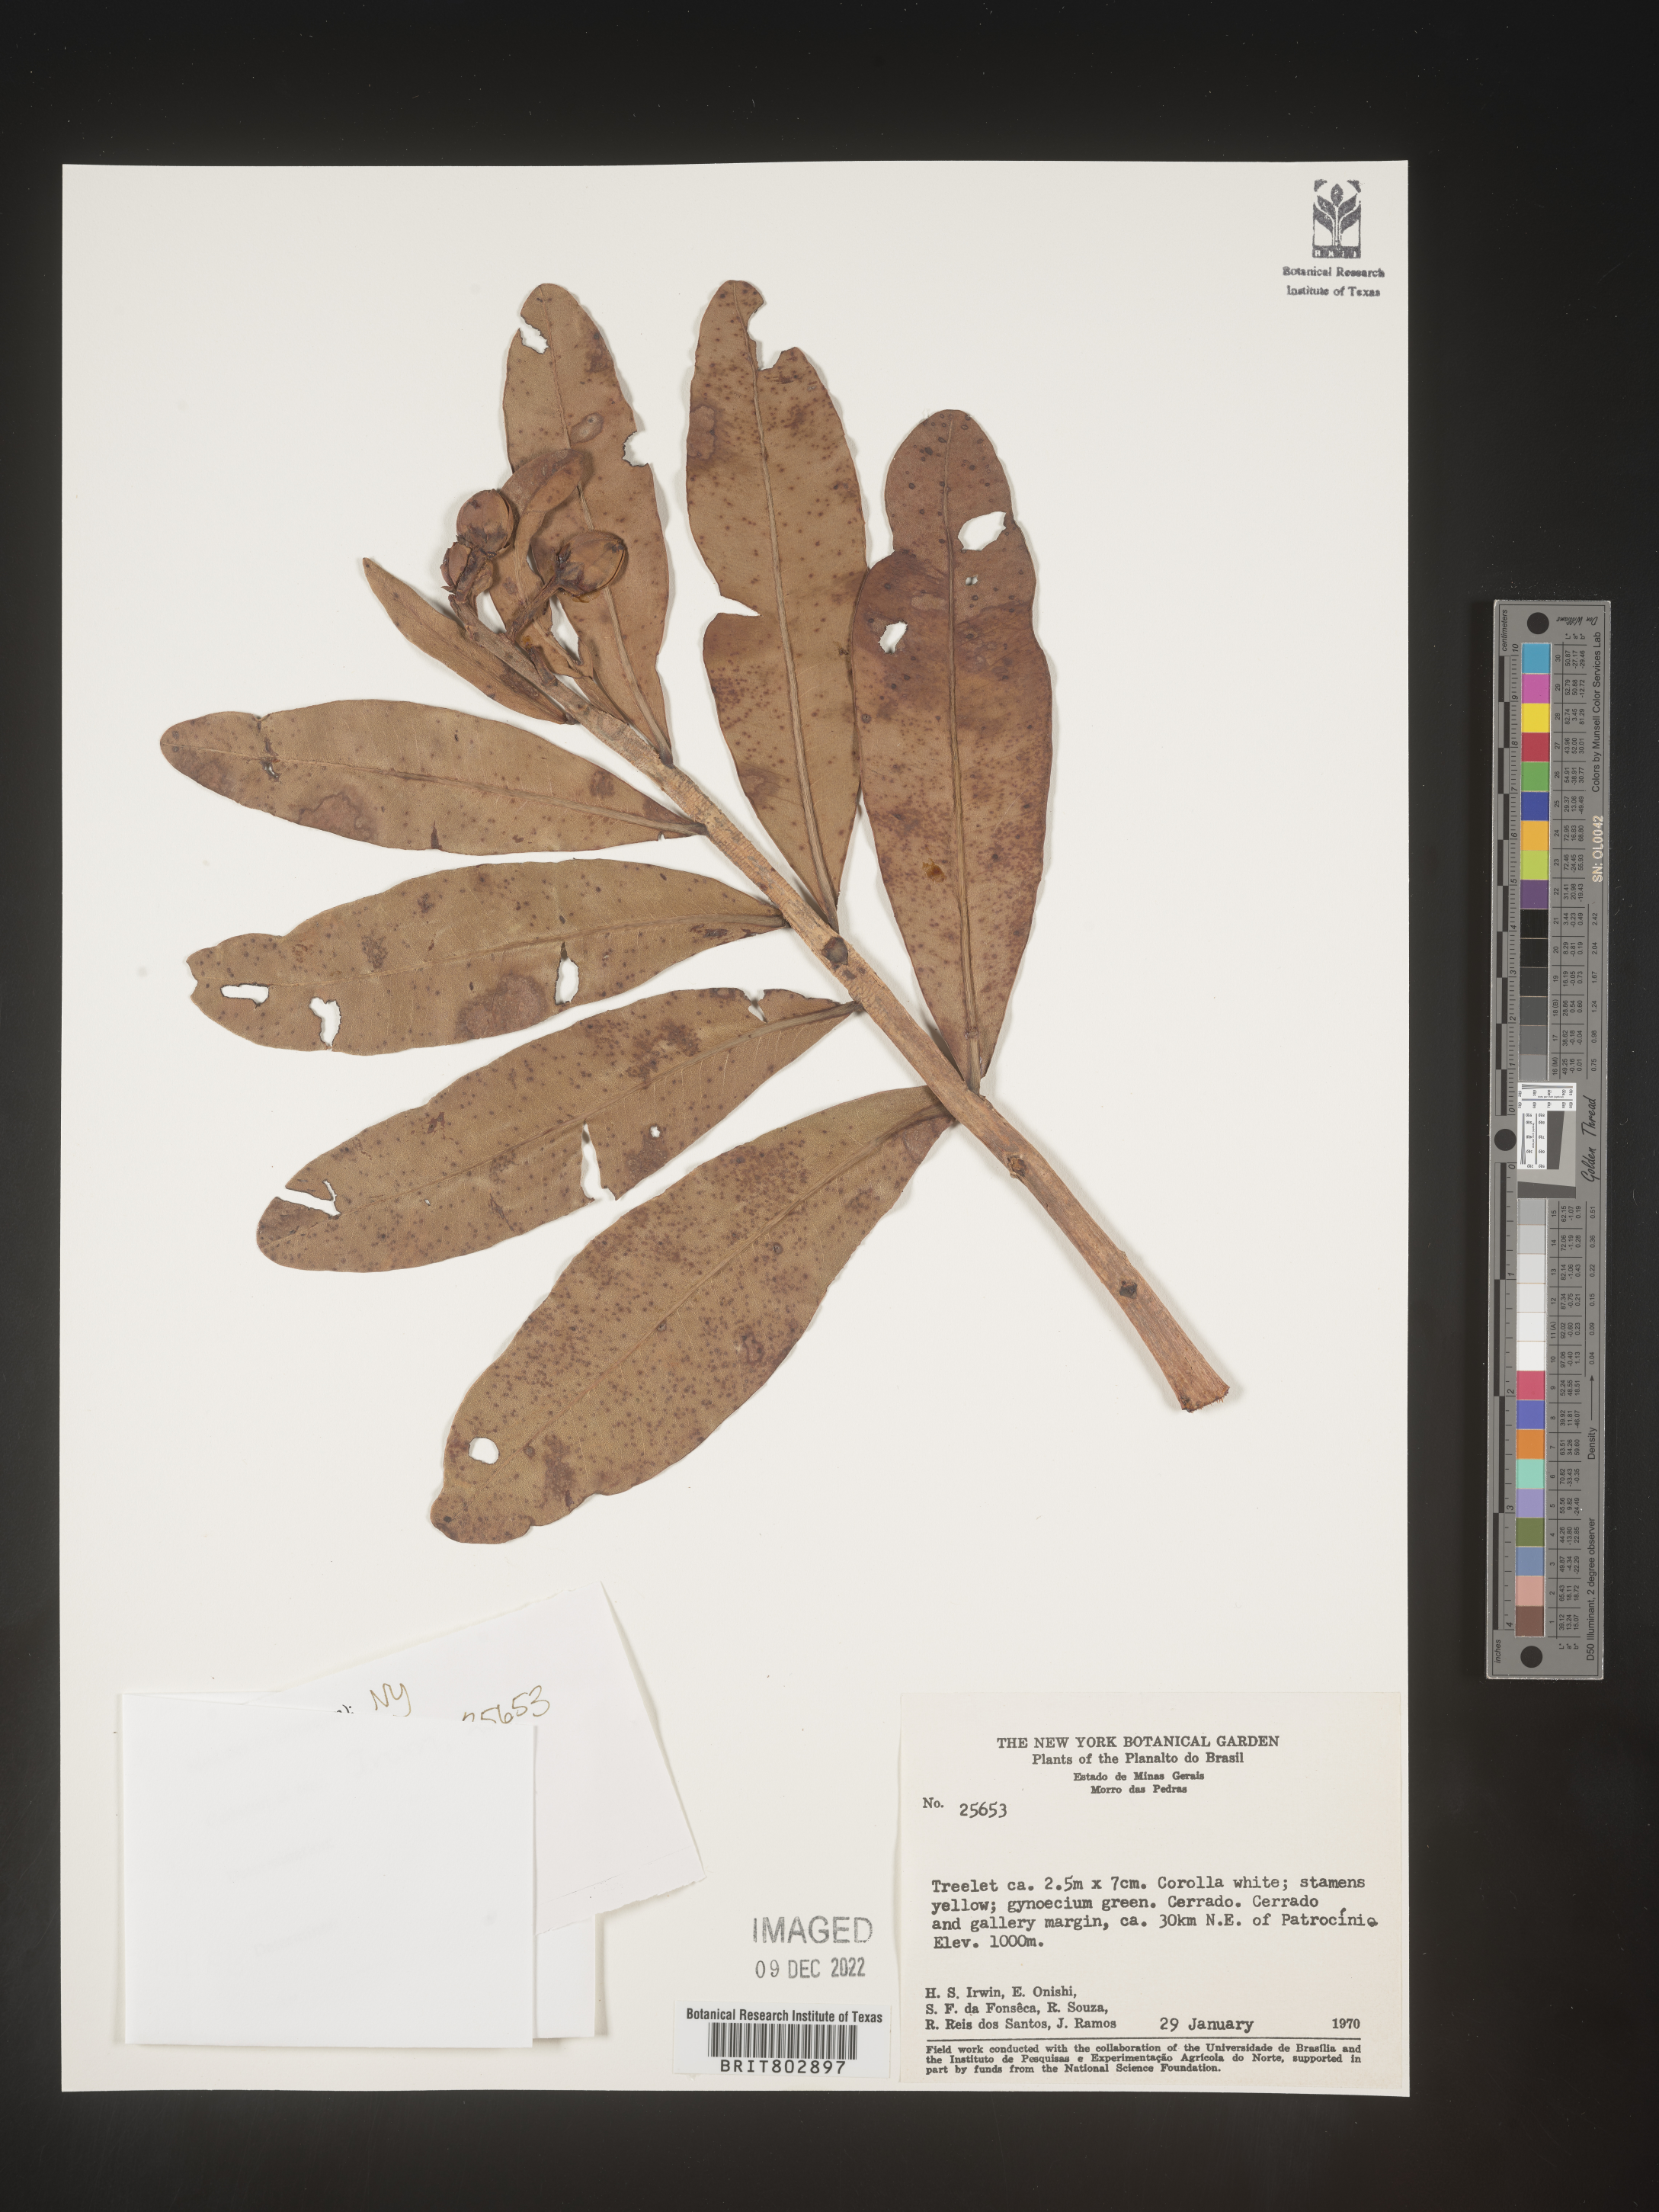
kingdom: Plantae
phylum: Tracheophyta
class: Magnoliopsida
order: Malpighiales
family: Calophyllaceae
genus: Kielmeyera
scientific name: Kielmeyera
